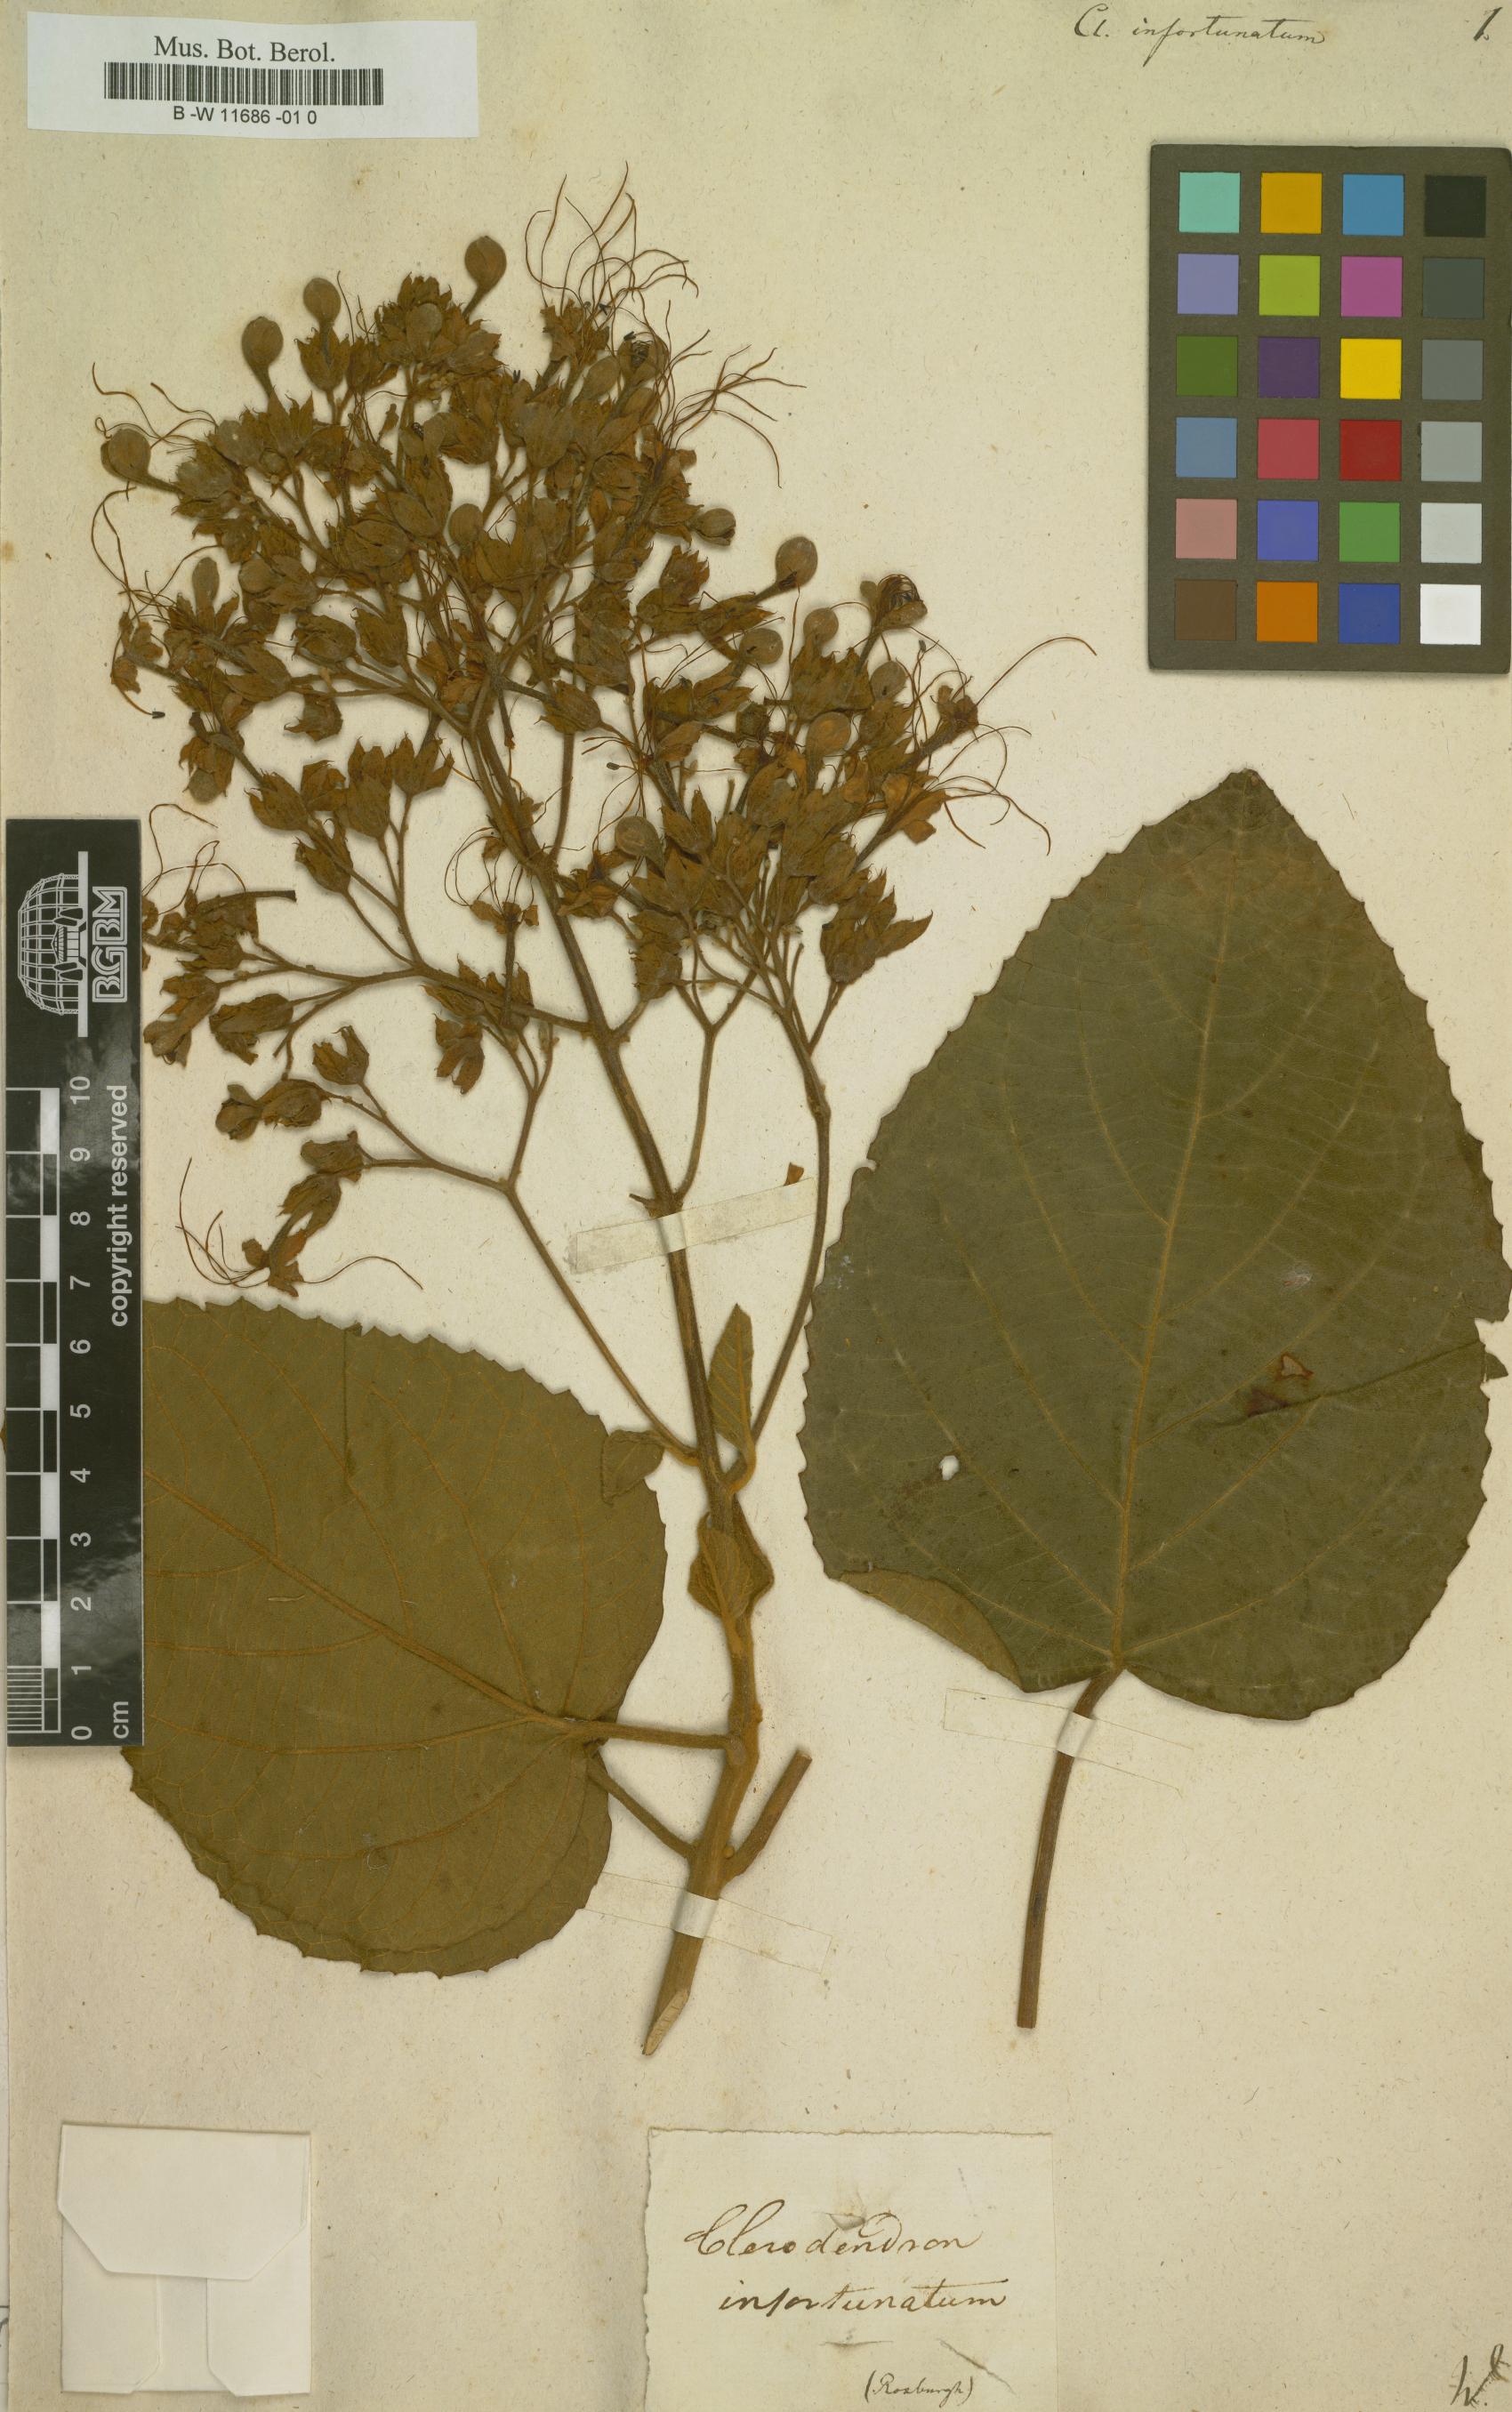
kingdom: Plantae
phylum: Tracheophyta
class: Magnoliopsida
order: Lamiales
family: Lamiaceae
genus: Clerodendrum
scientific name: Clerodendrum infortunatum
